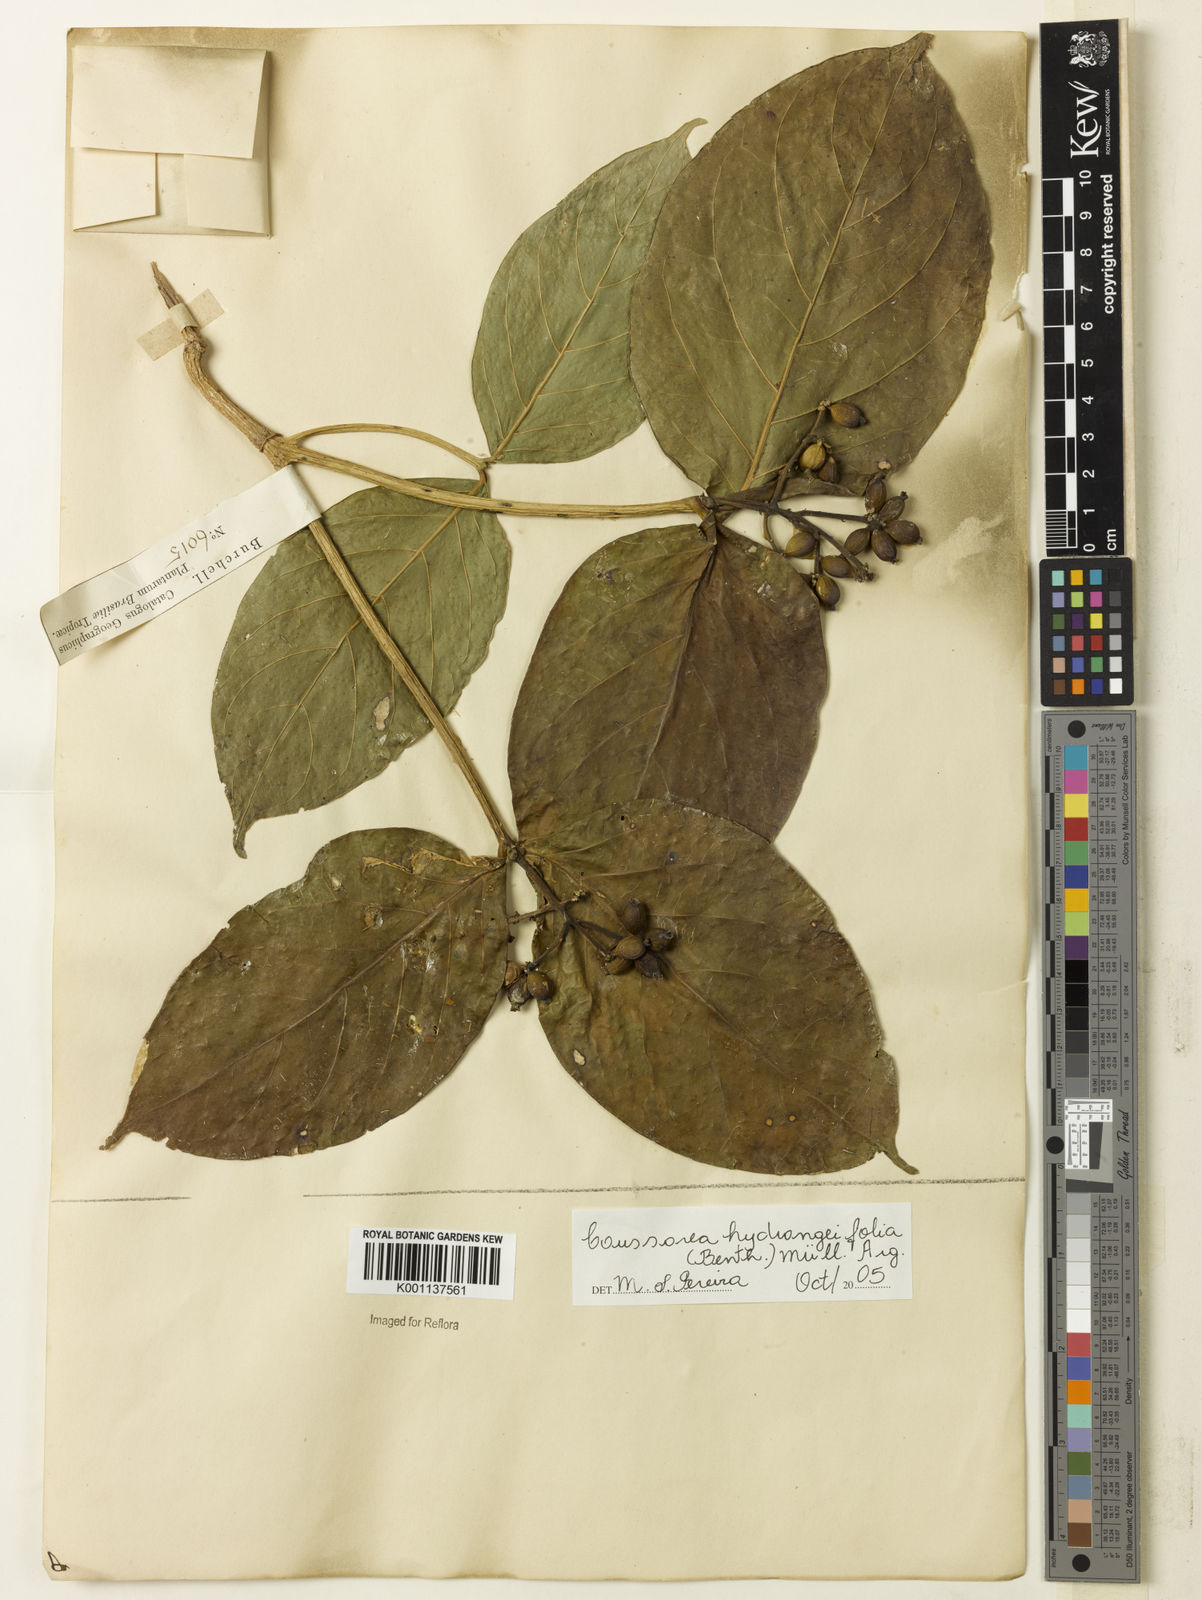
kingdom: Plantae
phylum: Tracheophyta
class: Magnoliopsida
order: Gentianales
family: Rubiaceae
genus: Coussarea
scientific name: Coussarea
